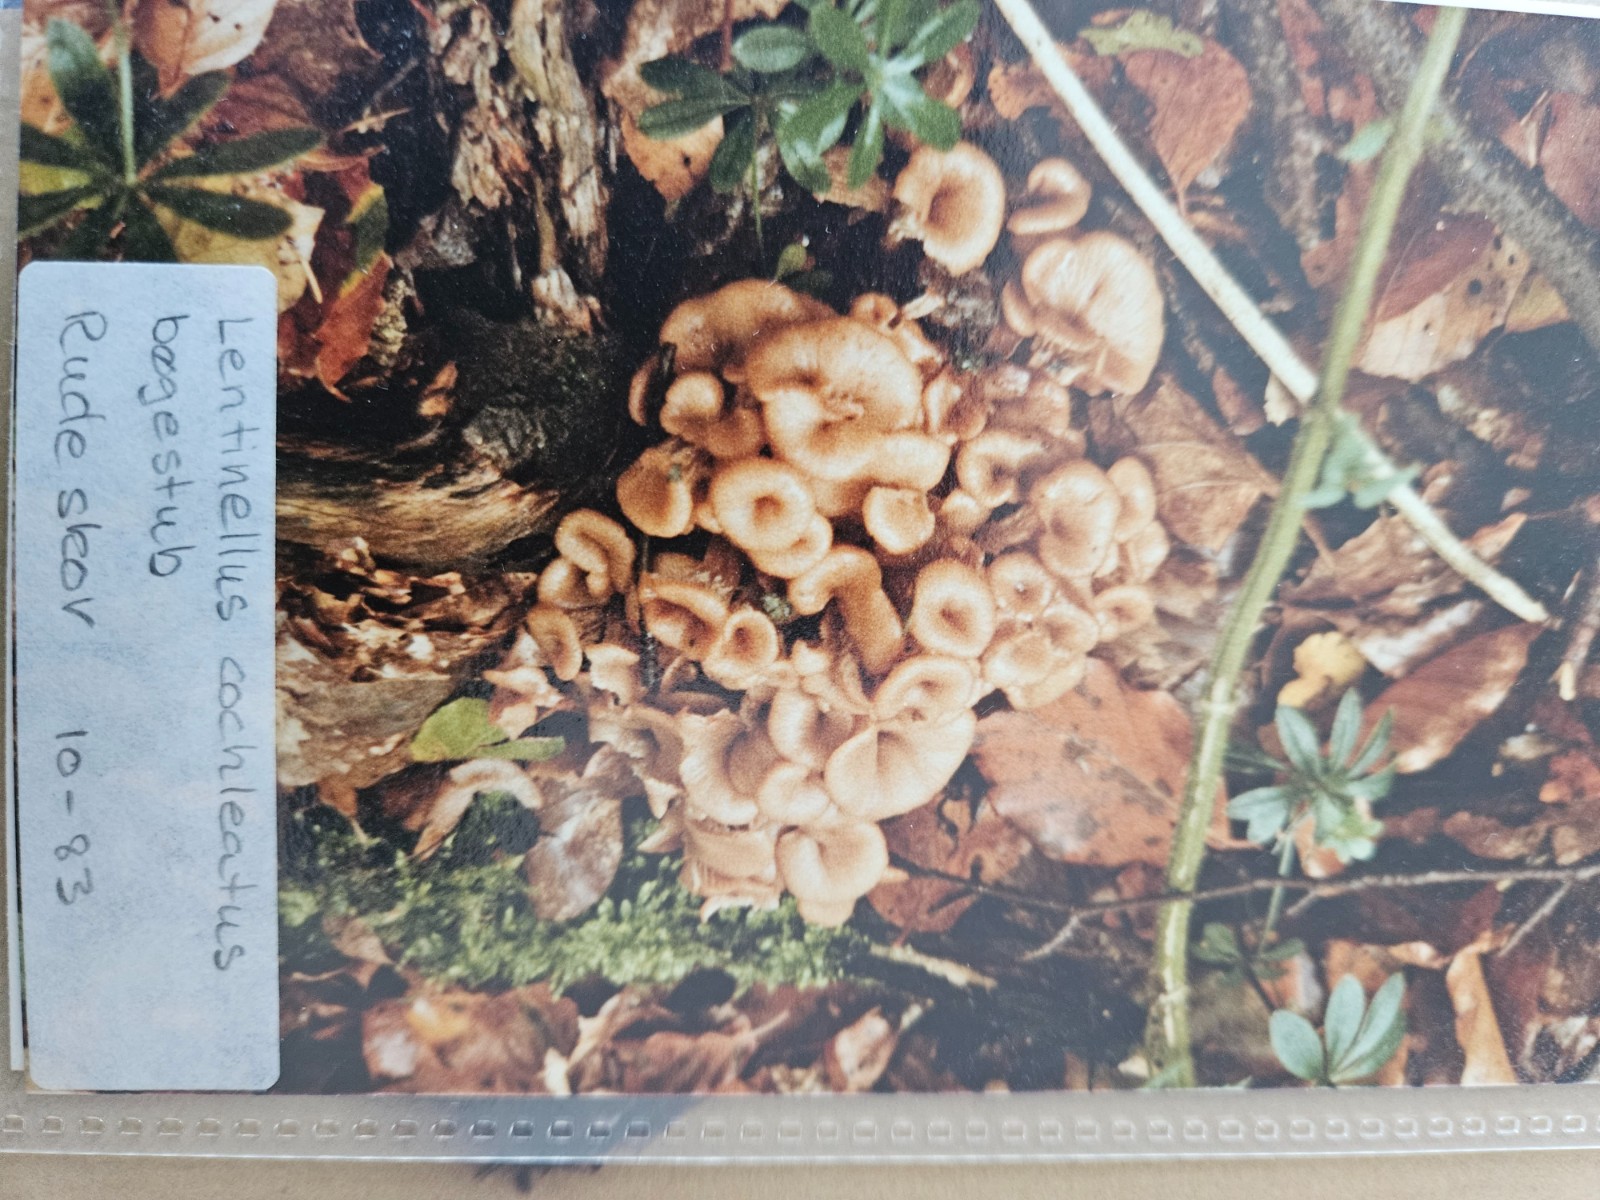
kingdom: Fungi
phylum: Basidiomycota
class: Agaricomycetes
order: Russulales
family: Auriscalpiaceae
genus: Lentinellus
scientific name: Lentinellus cochleatus
